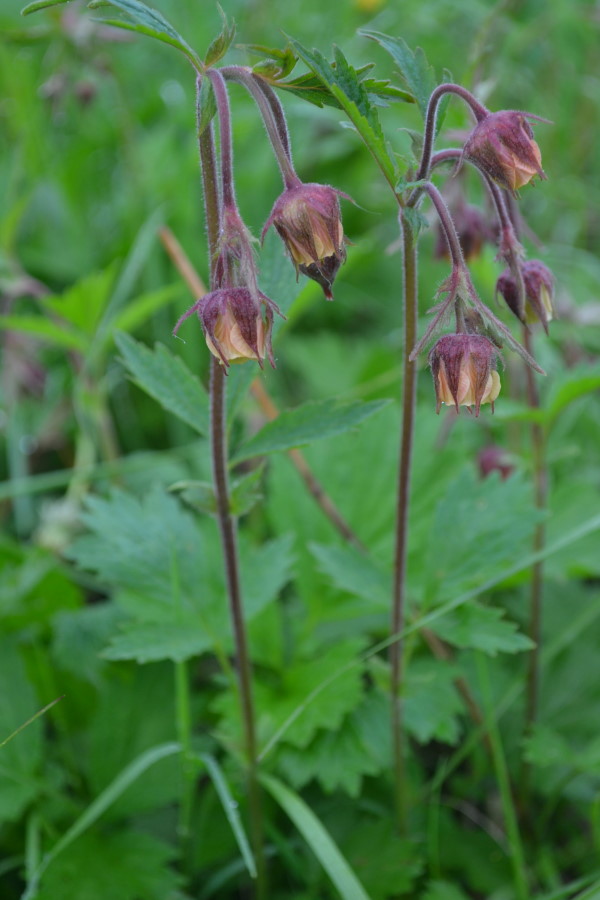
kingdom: Plantae
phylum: Tracheophyta
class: Magnoliopsida
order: Rosales
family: Rosaceae
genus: Geum
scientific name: Geum rivale
